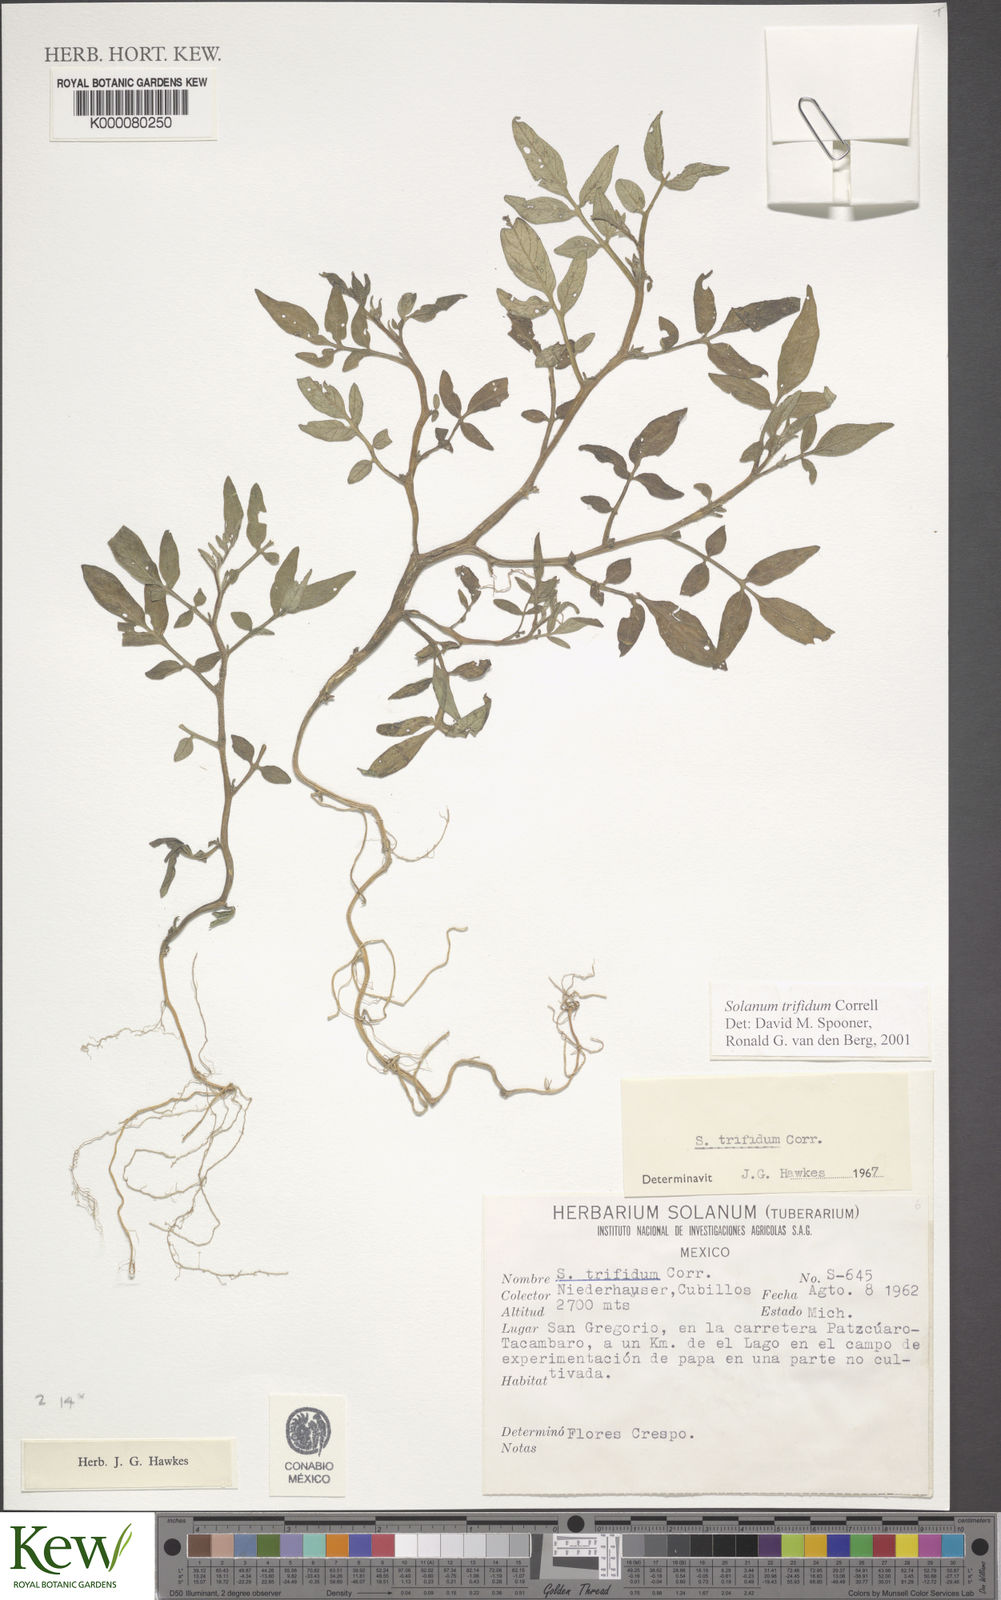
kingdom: Plantae
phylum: Tracheophyta
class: Magnoliopsida
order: Solanales
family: Solanaceae
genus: Solanum
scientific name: Solanum trifidum
